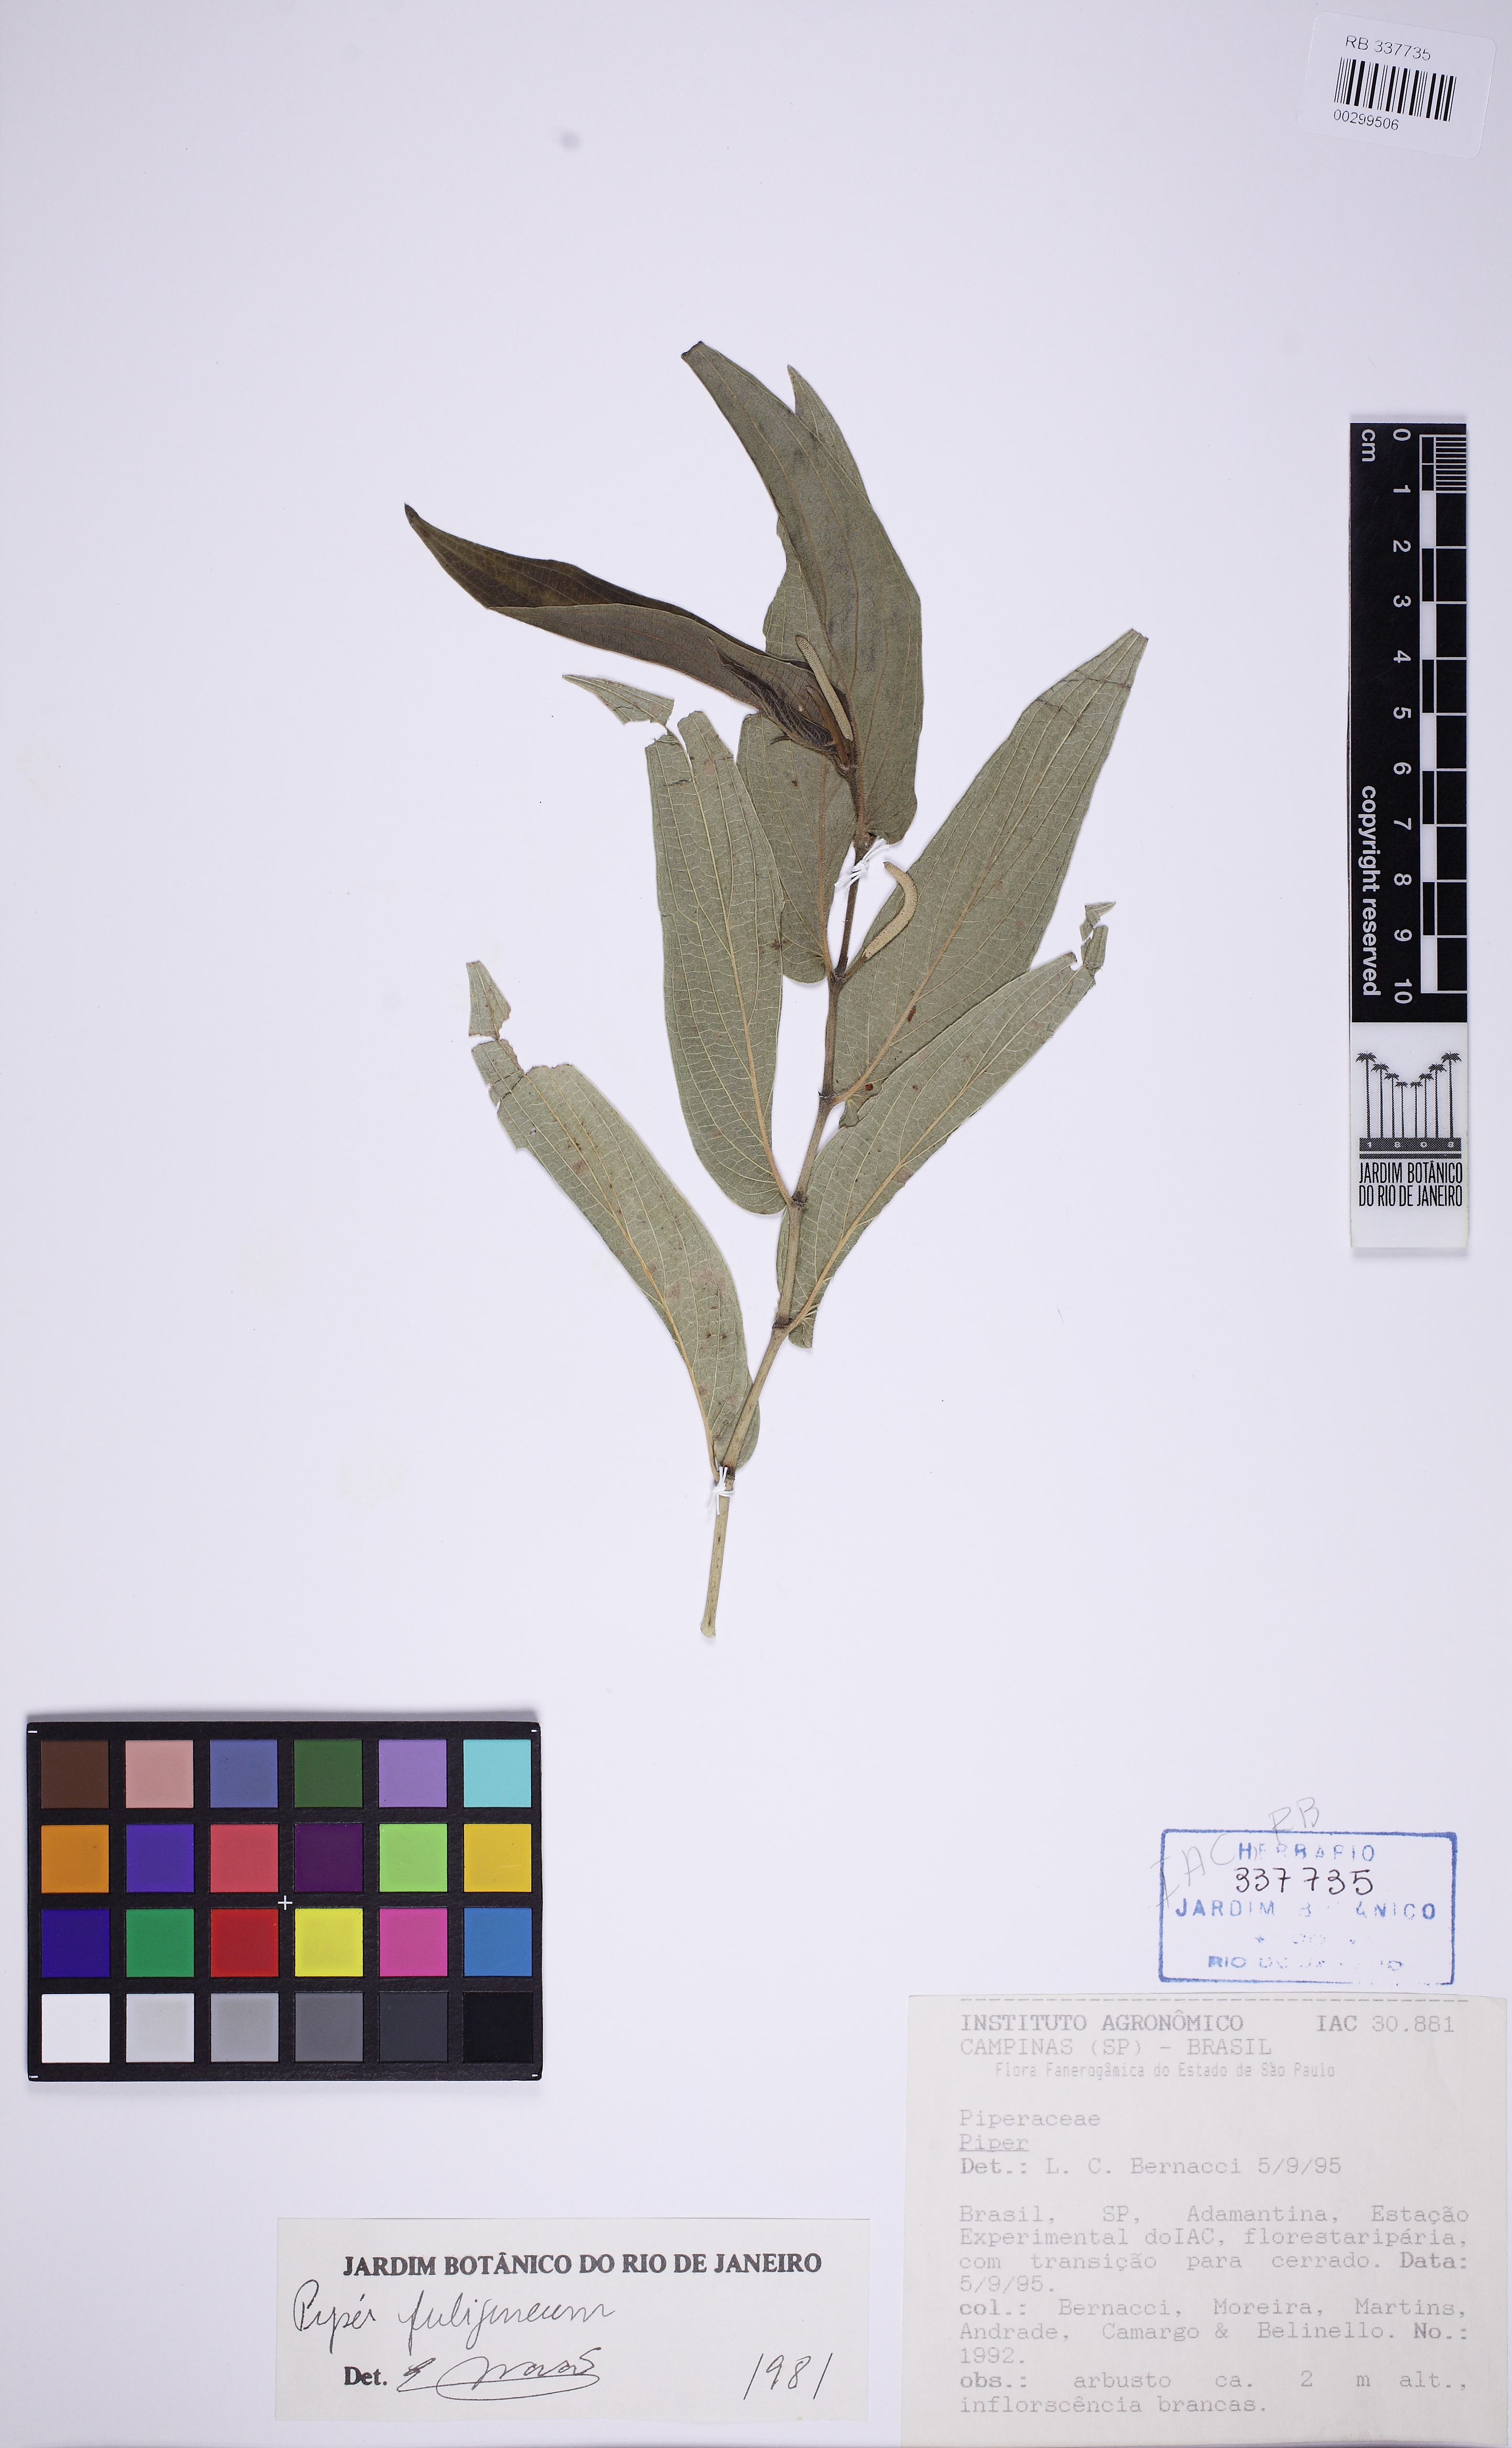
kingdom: Plantae
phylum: Tracheophyta
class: Magnoliopsida
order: Piperales
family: Piperaceae
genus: Piper
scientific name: Piper fuligineum
